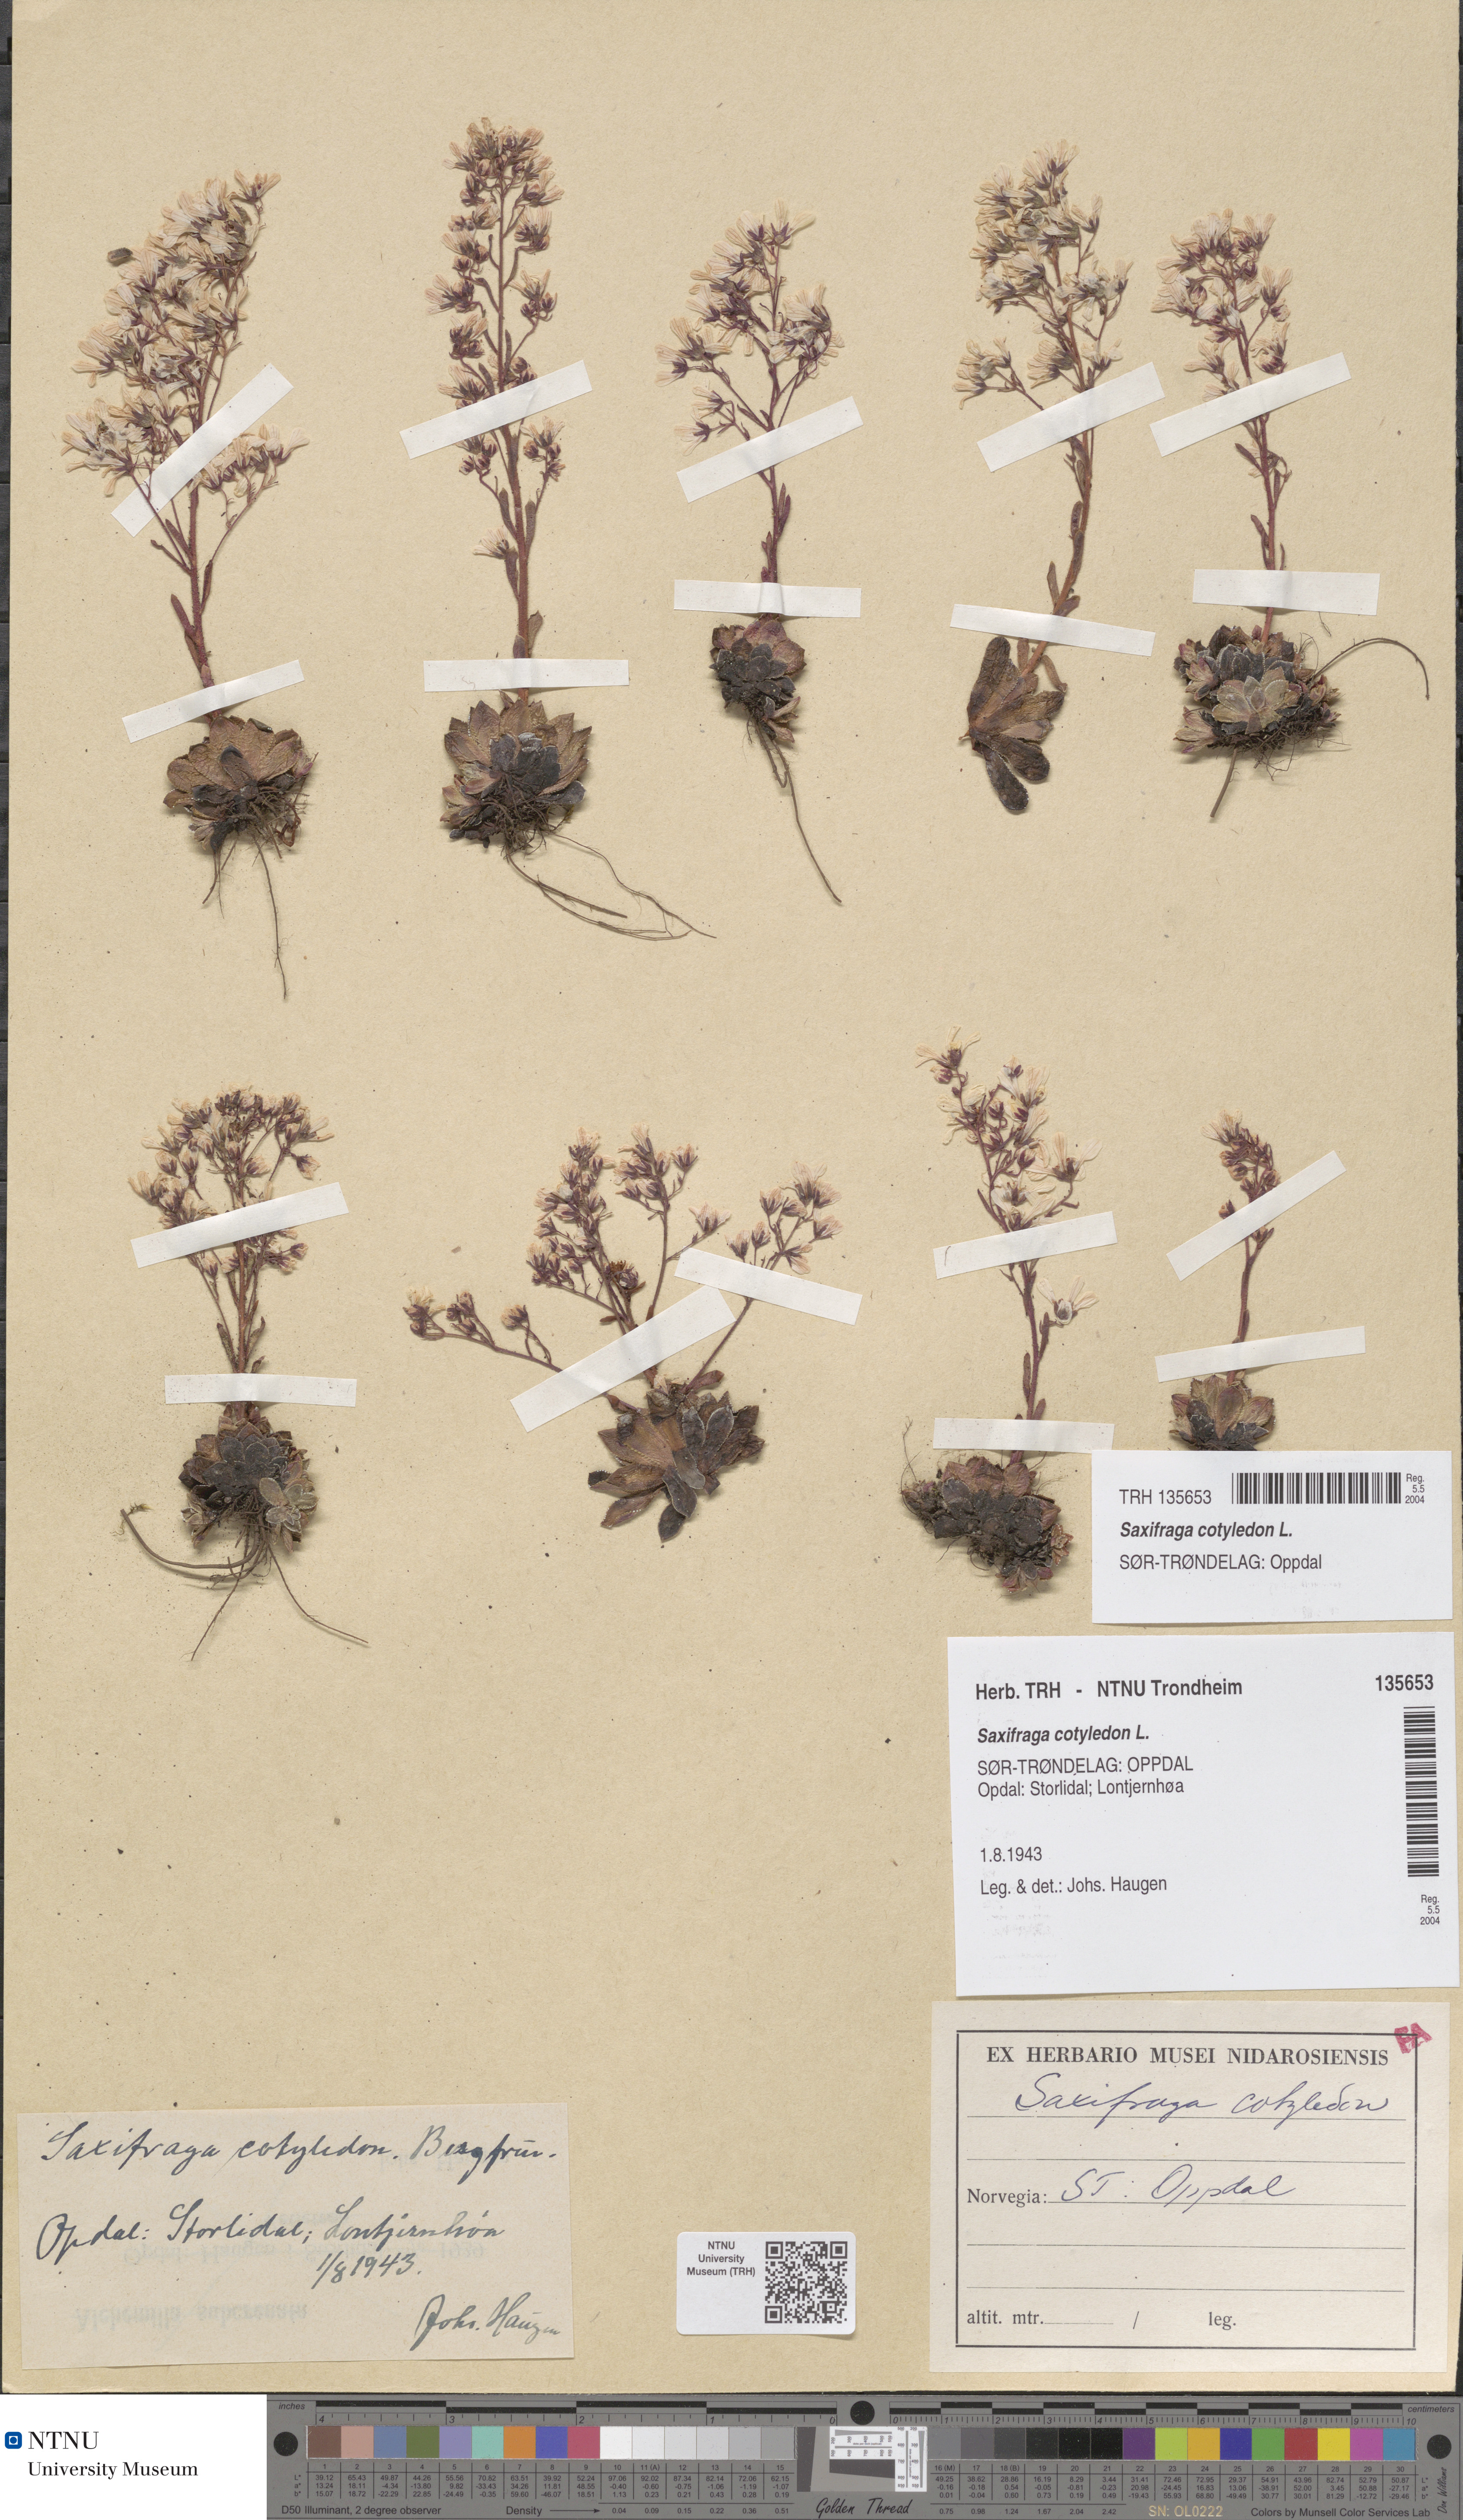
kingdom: Plantae
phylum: Tracheophyta
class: Magnoliopsida
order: Saxifragales
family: Saxifragaceae
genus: Saxifraga
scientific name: Saxifraga cotyledon
